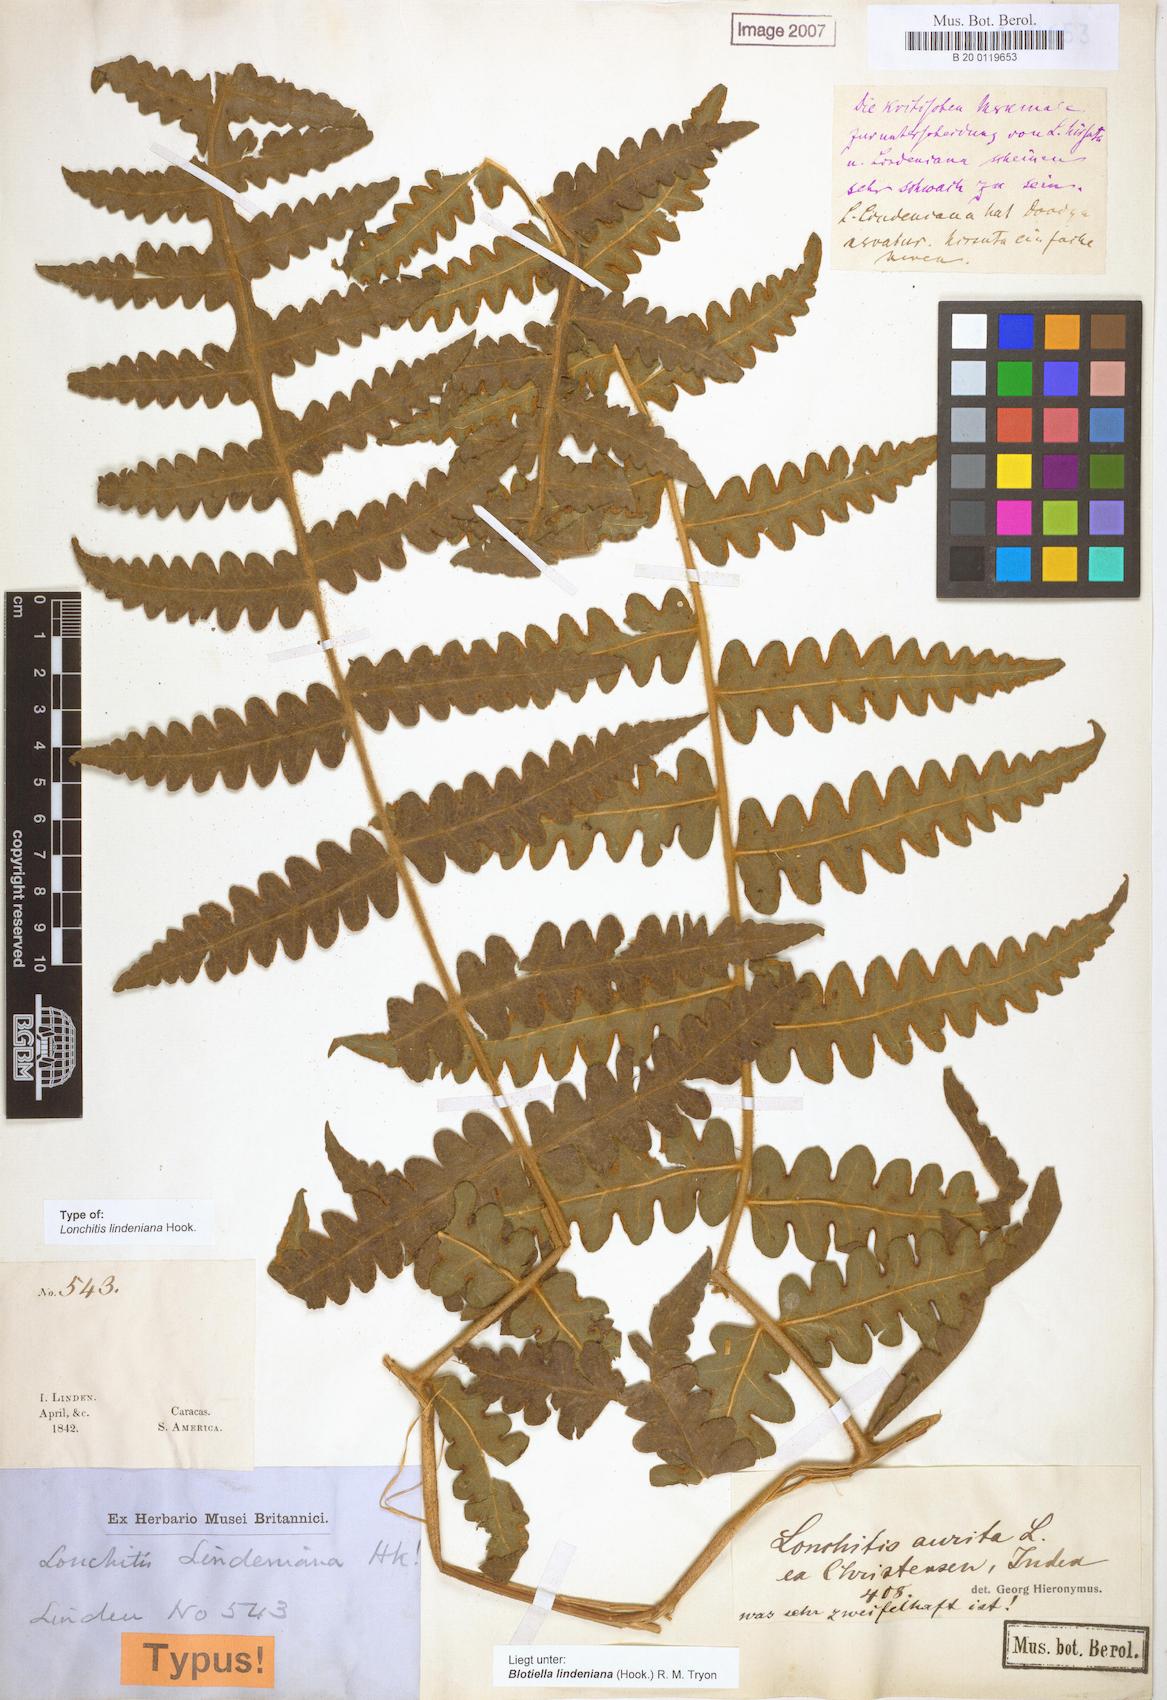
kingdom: Plantae
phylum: Tracheophyta
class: Polypodiopsida
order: Polypodiales
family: Dennstaedtiaceae
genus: Blotiella
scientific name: Blotiella aurita
